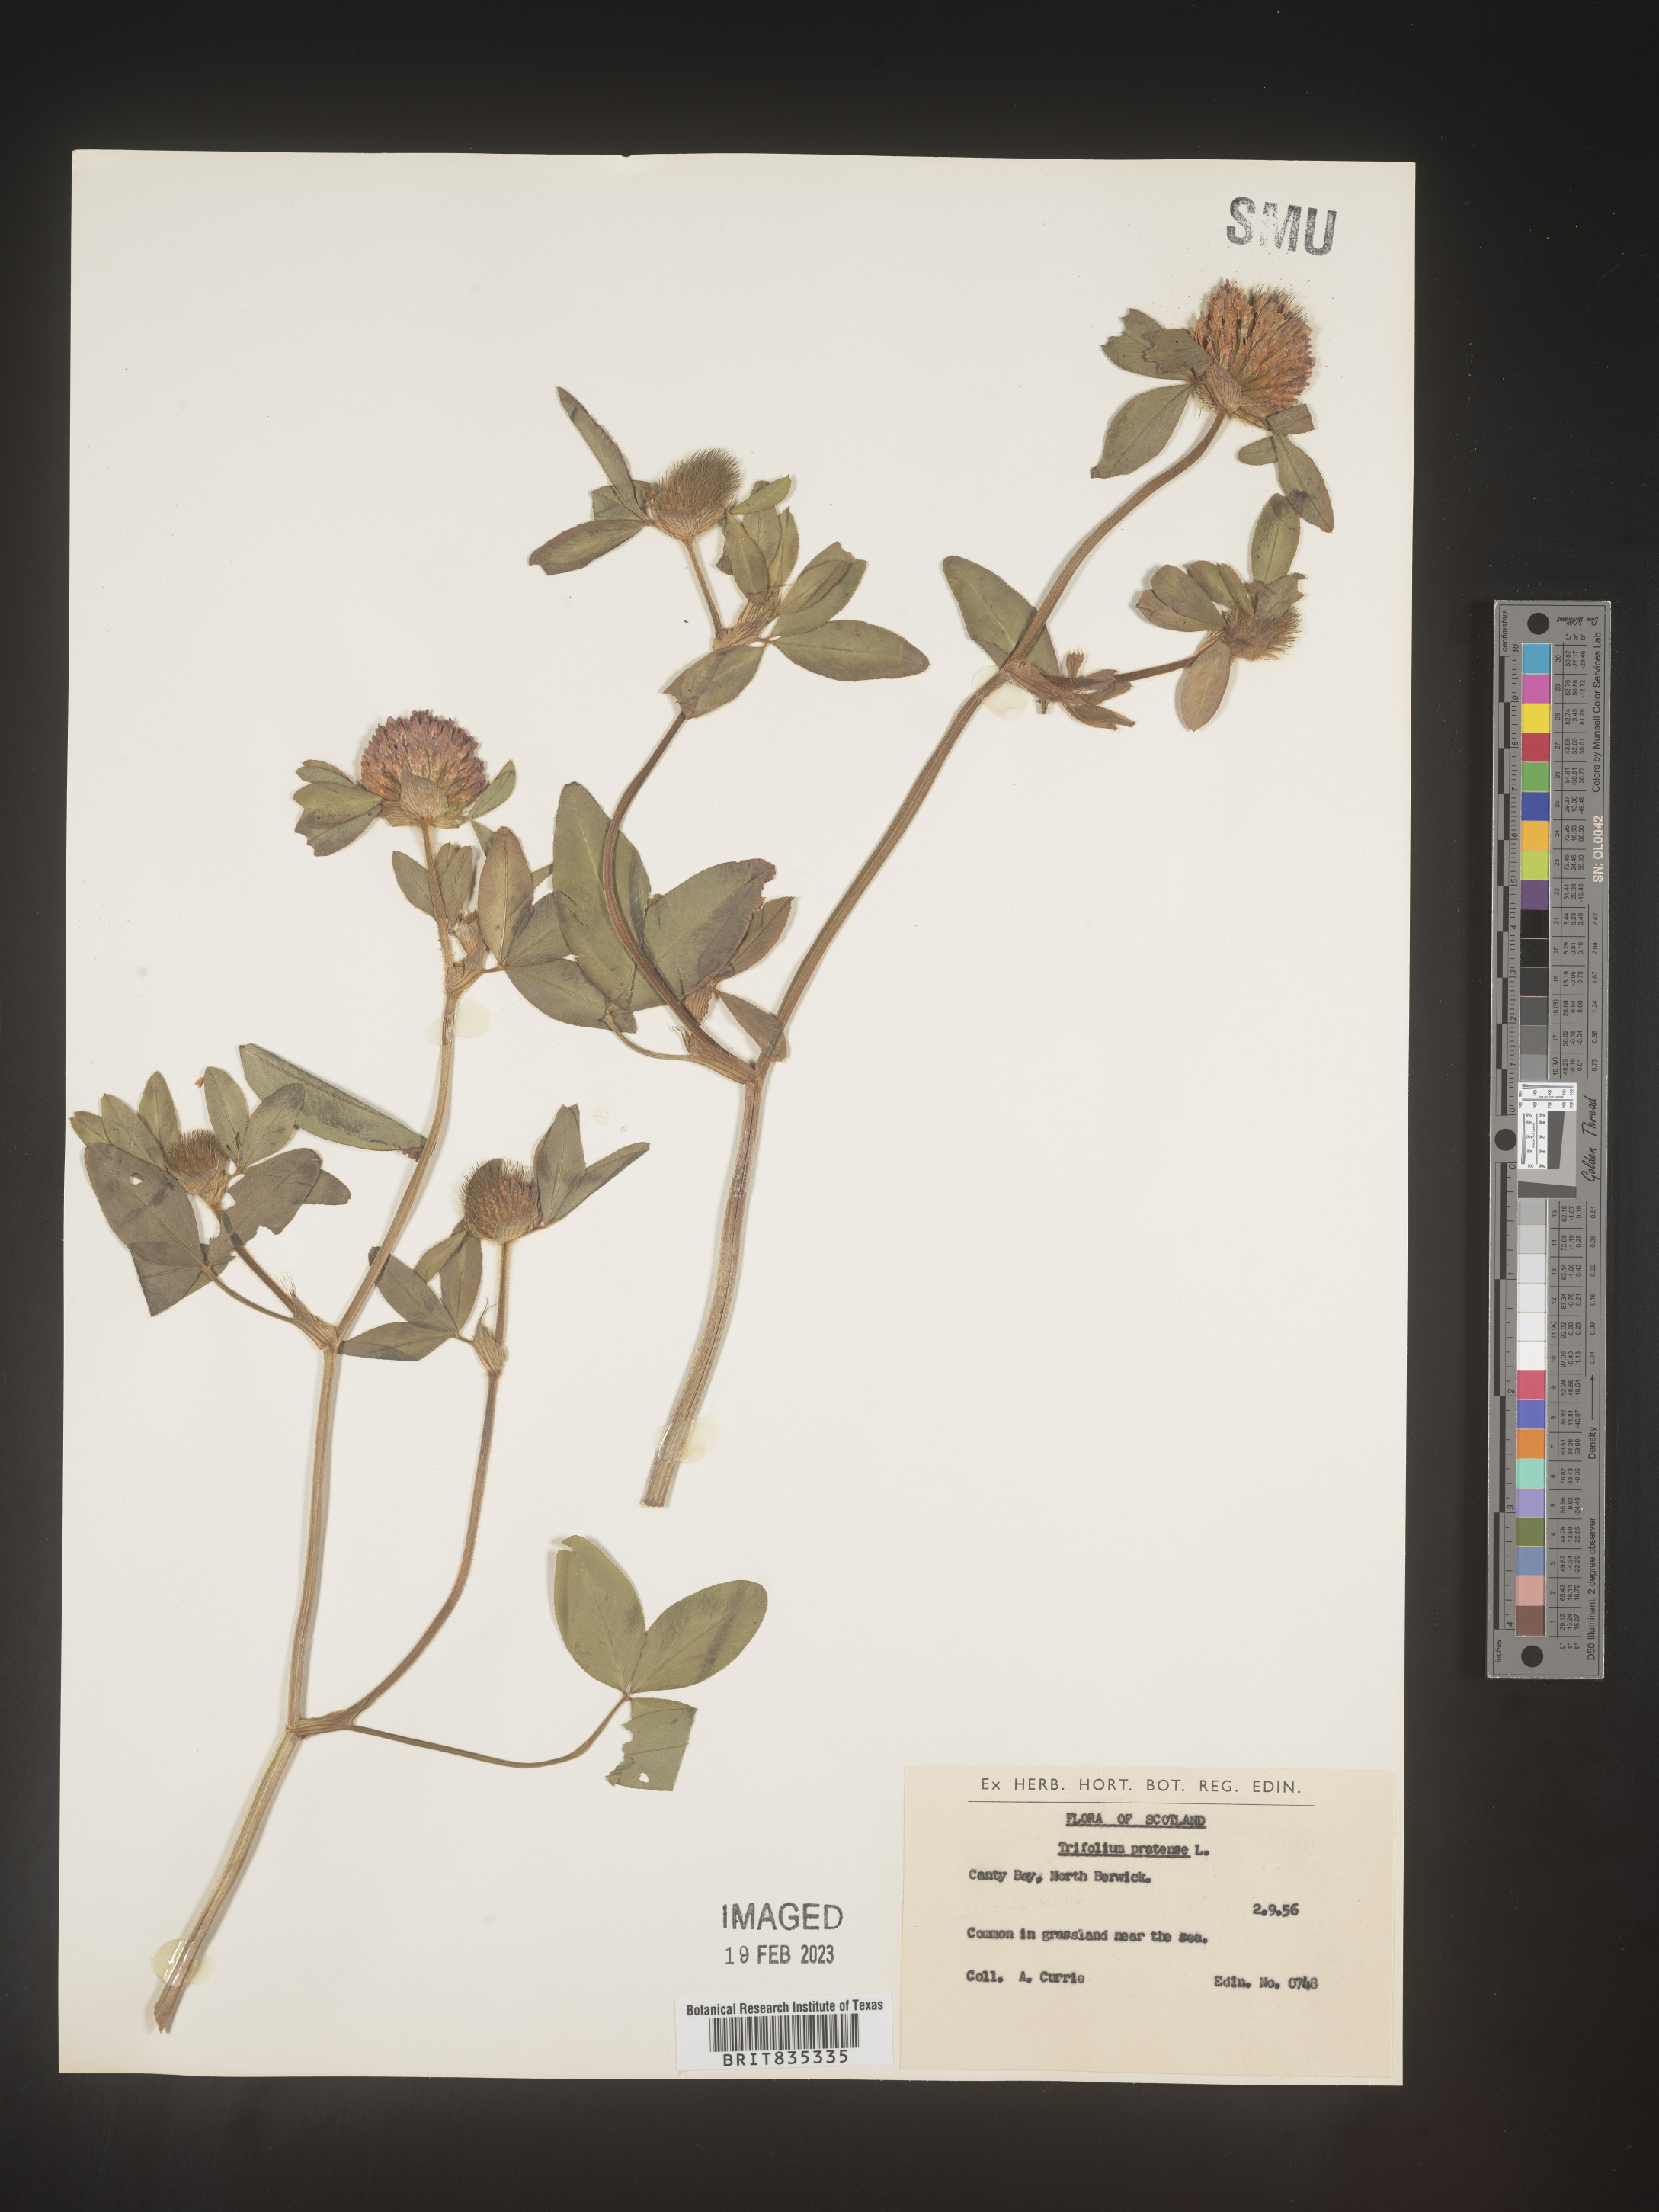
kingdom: Plantae
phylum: Tracheophyta
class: Magnoliopsida
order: Fabales
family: Fabaceae
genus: Trifolium
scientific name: Trifolium
